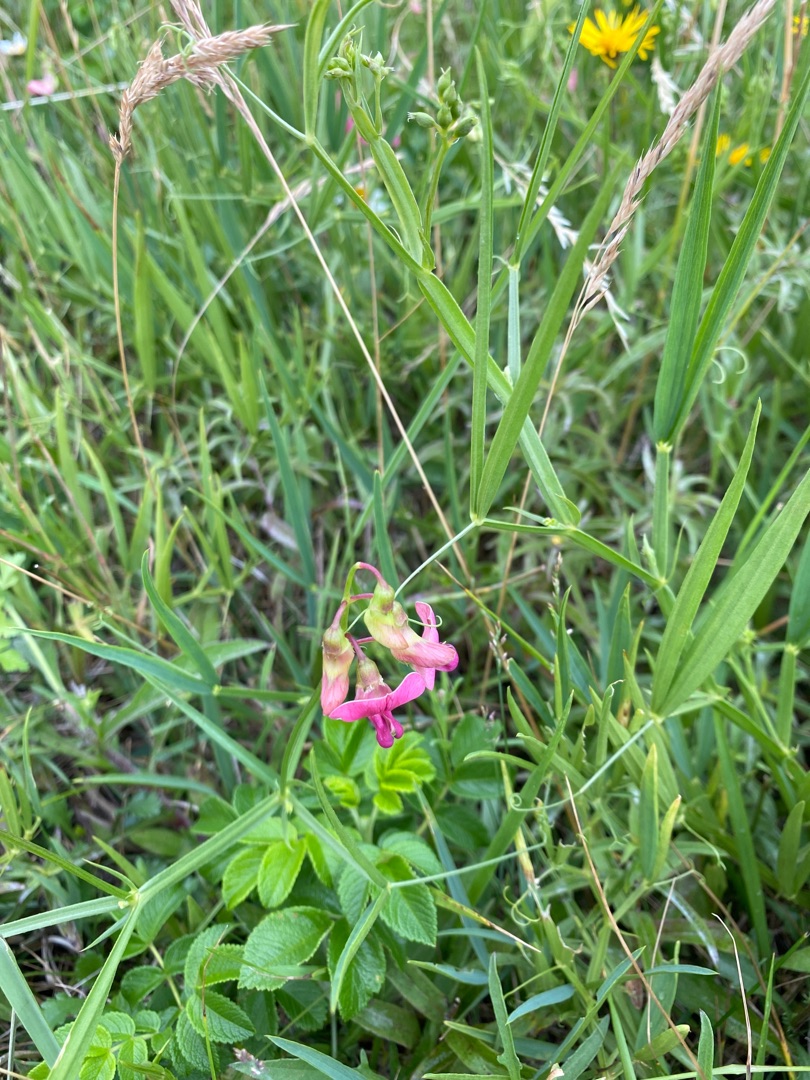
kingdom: Plantae
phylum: Tracheophyta
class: Magnoliopsida
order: Fabales
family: Fabaceae
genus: Lathyrus
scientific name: Lathyrus sylvestris
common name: Skov-fladbælg
